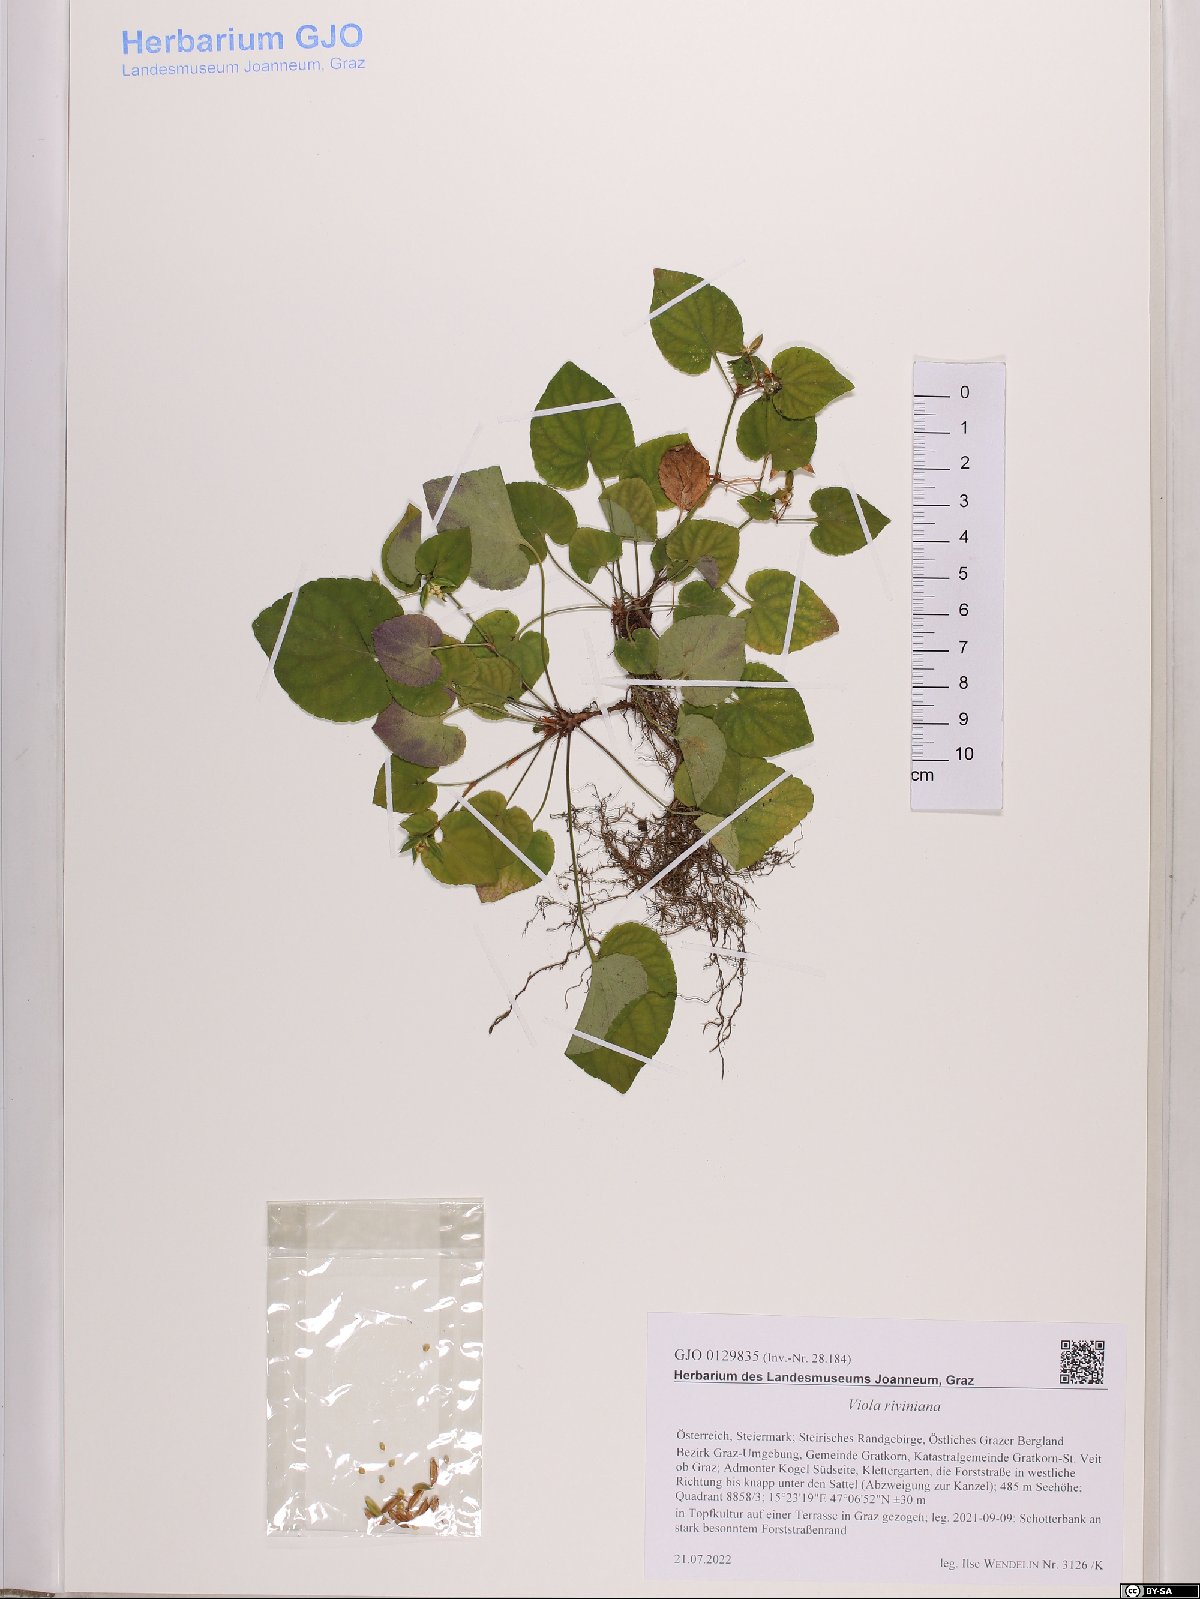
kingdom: Plantae
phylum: Tracheophyta
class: Magnoliopsida
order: Malpighiales
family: Violaceae
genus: Viola
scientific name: Viola riviniana
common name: Common dog-violet
